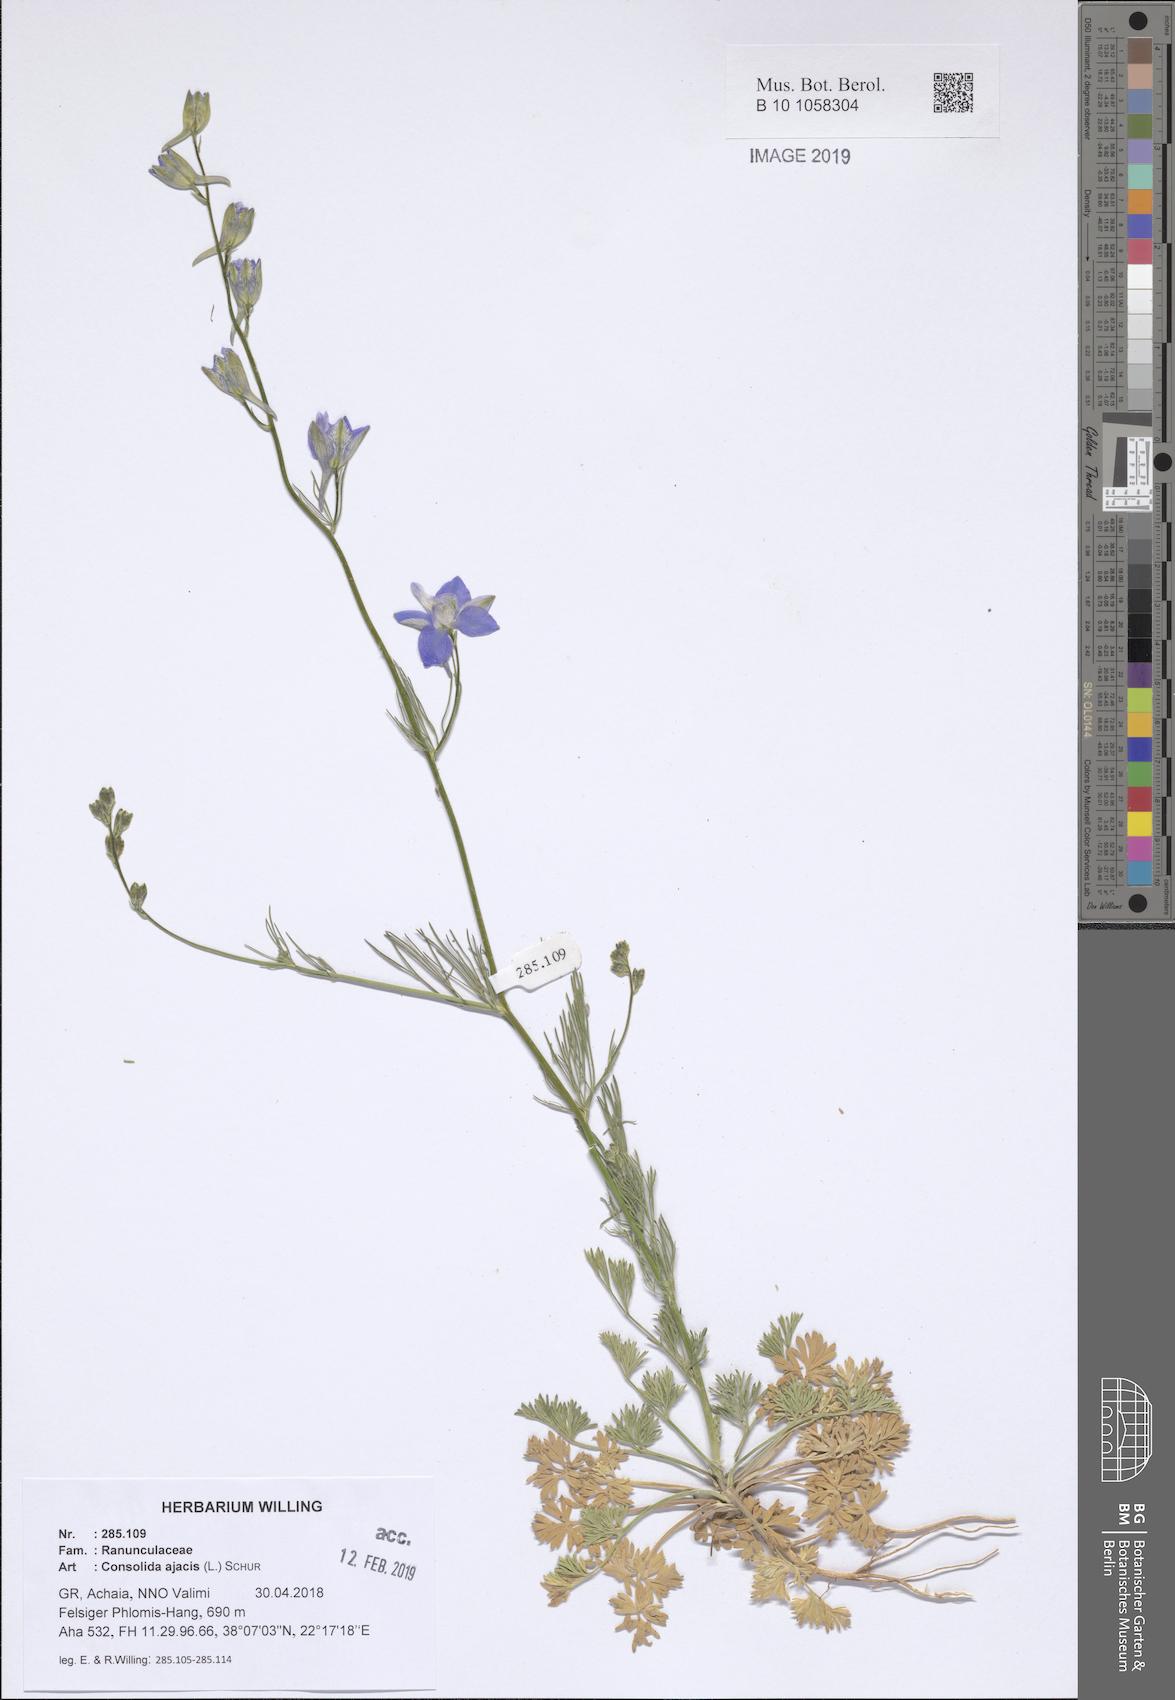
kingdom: Plantae
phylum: Tracheophyta
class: Magnoliopsida
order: Ranunculales
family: Ranunculaceae
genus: Delphinium
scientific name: Delphinium ajacis
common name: Doubtful knight's-spur
